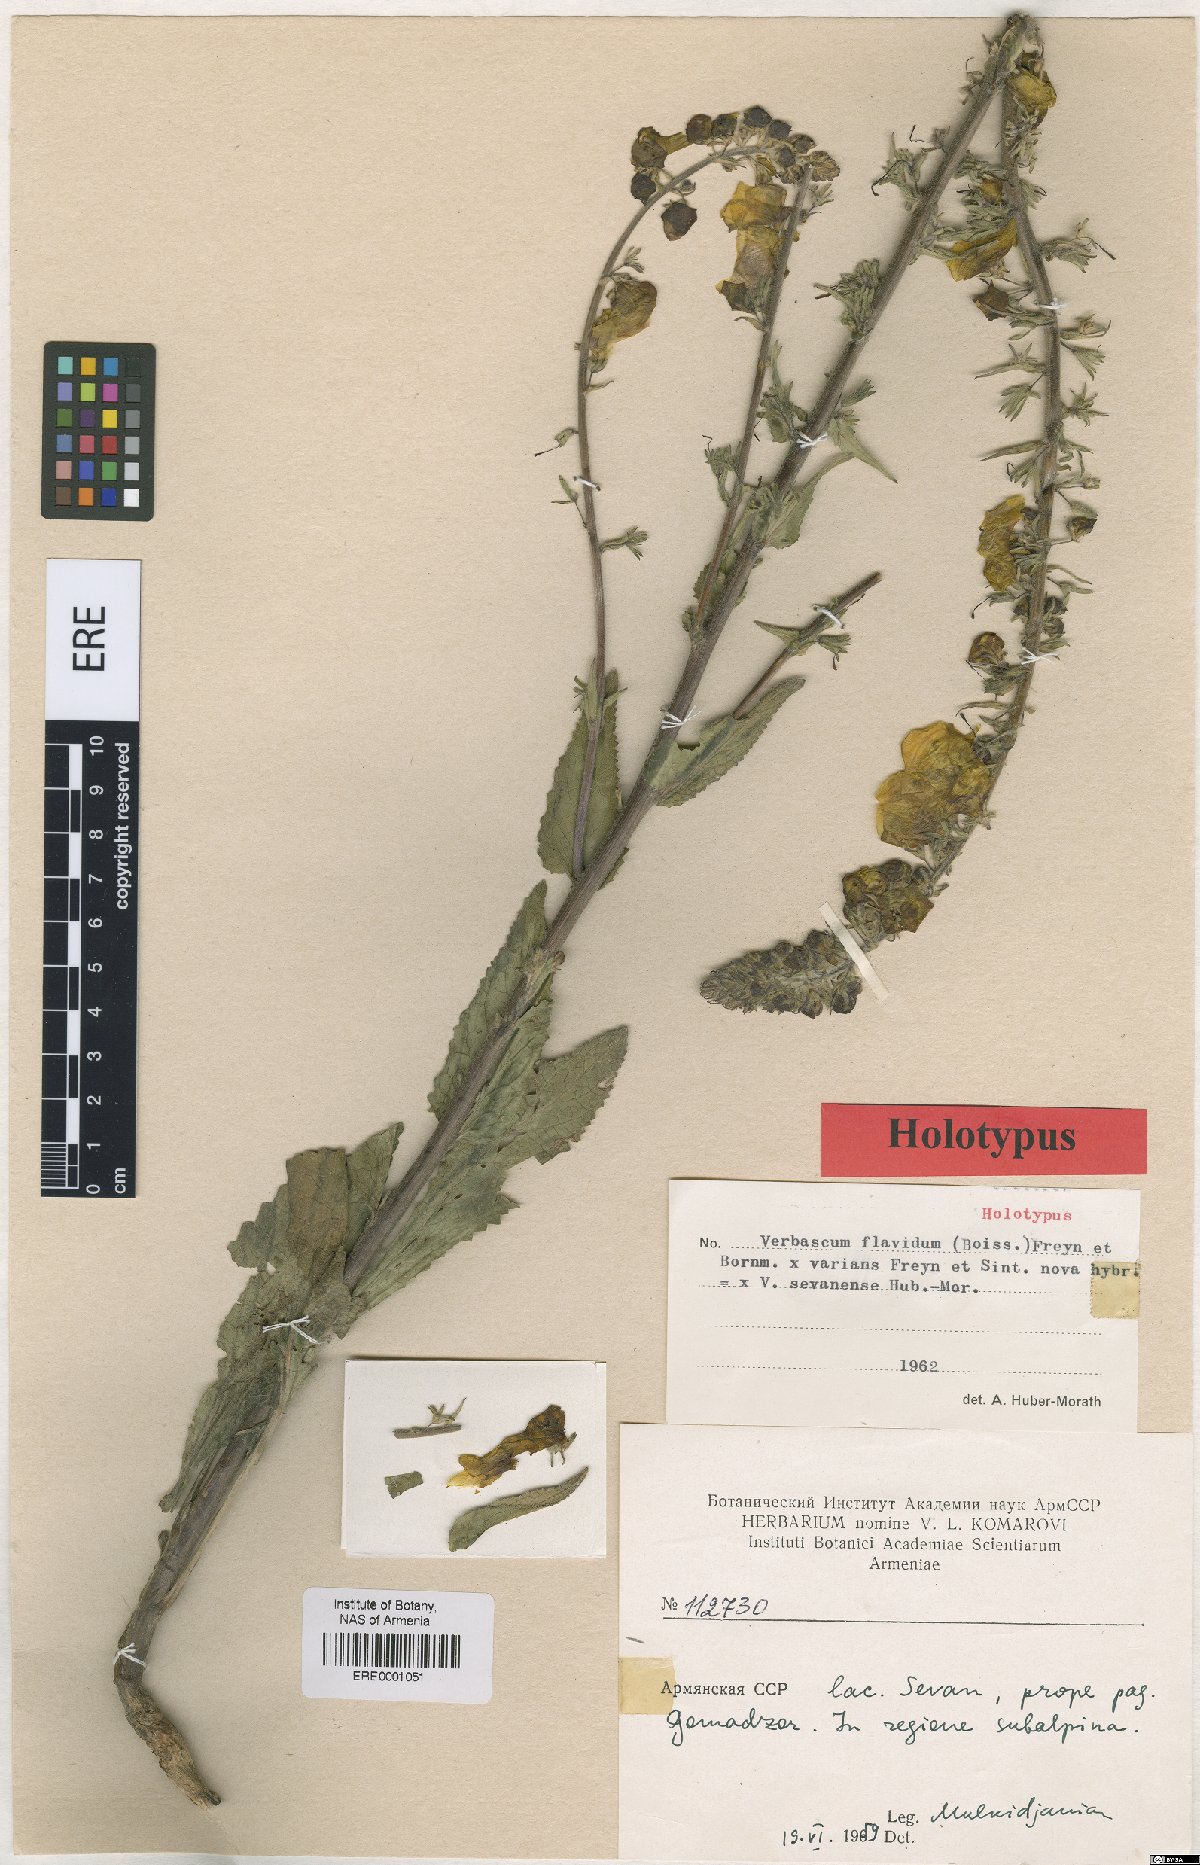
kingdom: Plantae
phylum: Tracheophyta
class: Magnoliopsida
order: Lamiales
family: Scrophulariaceae
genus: Verbascum
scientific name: Verbascum sevanense
